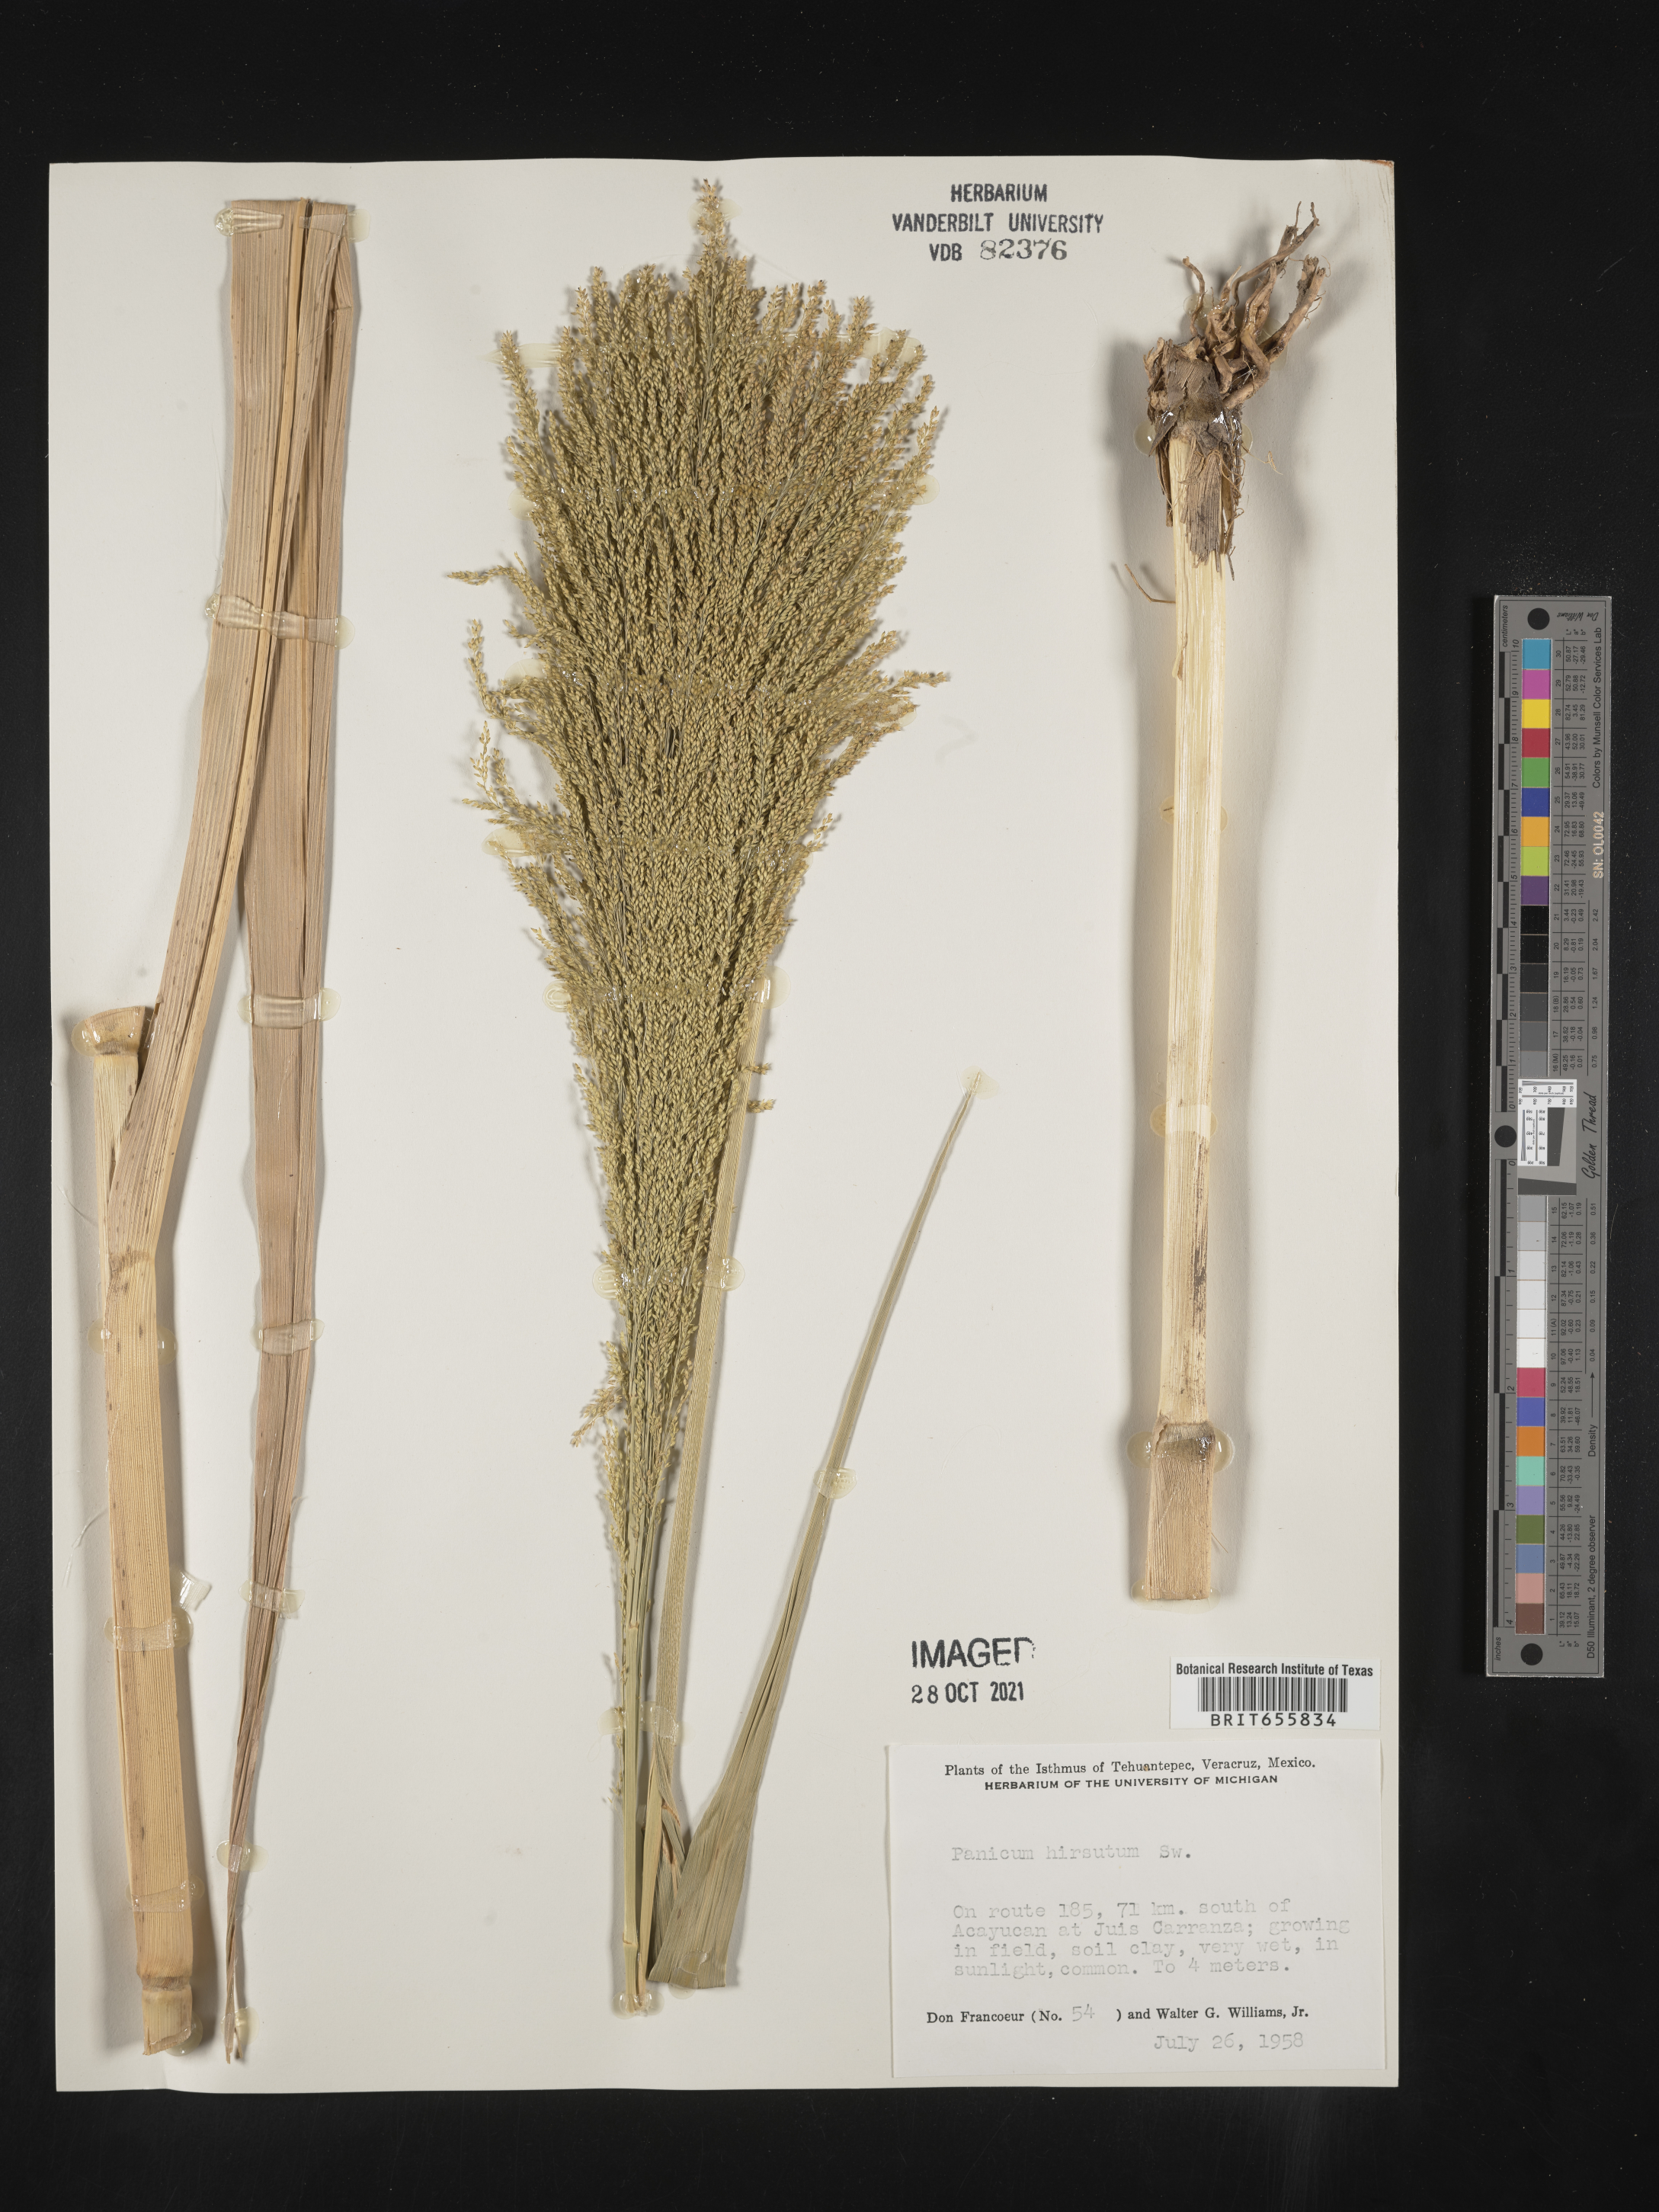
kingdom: Plantae
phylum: Tracheophyta
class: Liliopsida
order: Poales
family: Poaceae
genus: Panicum
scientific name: Panicum
